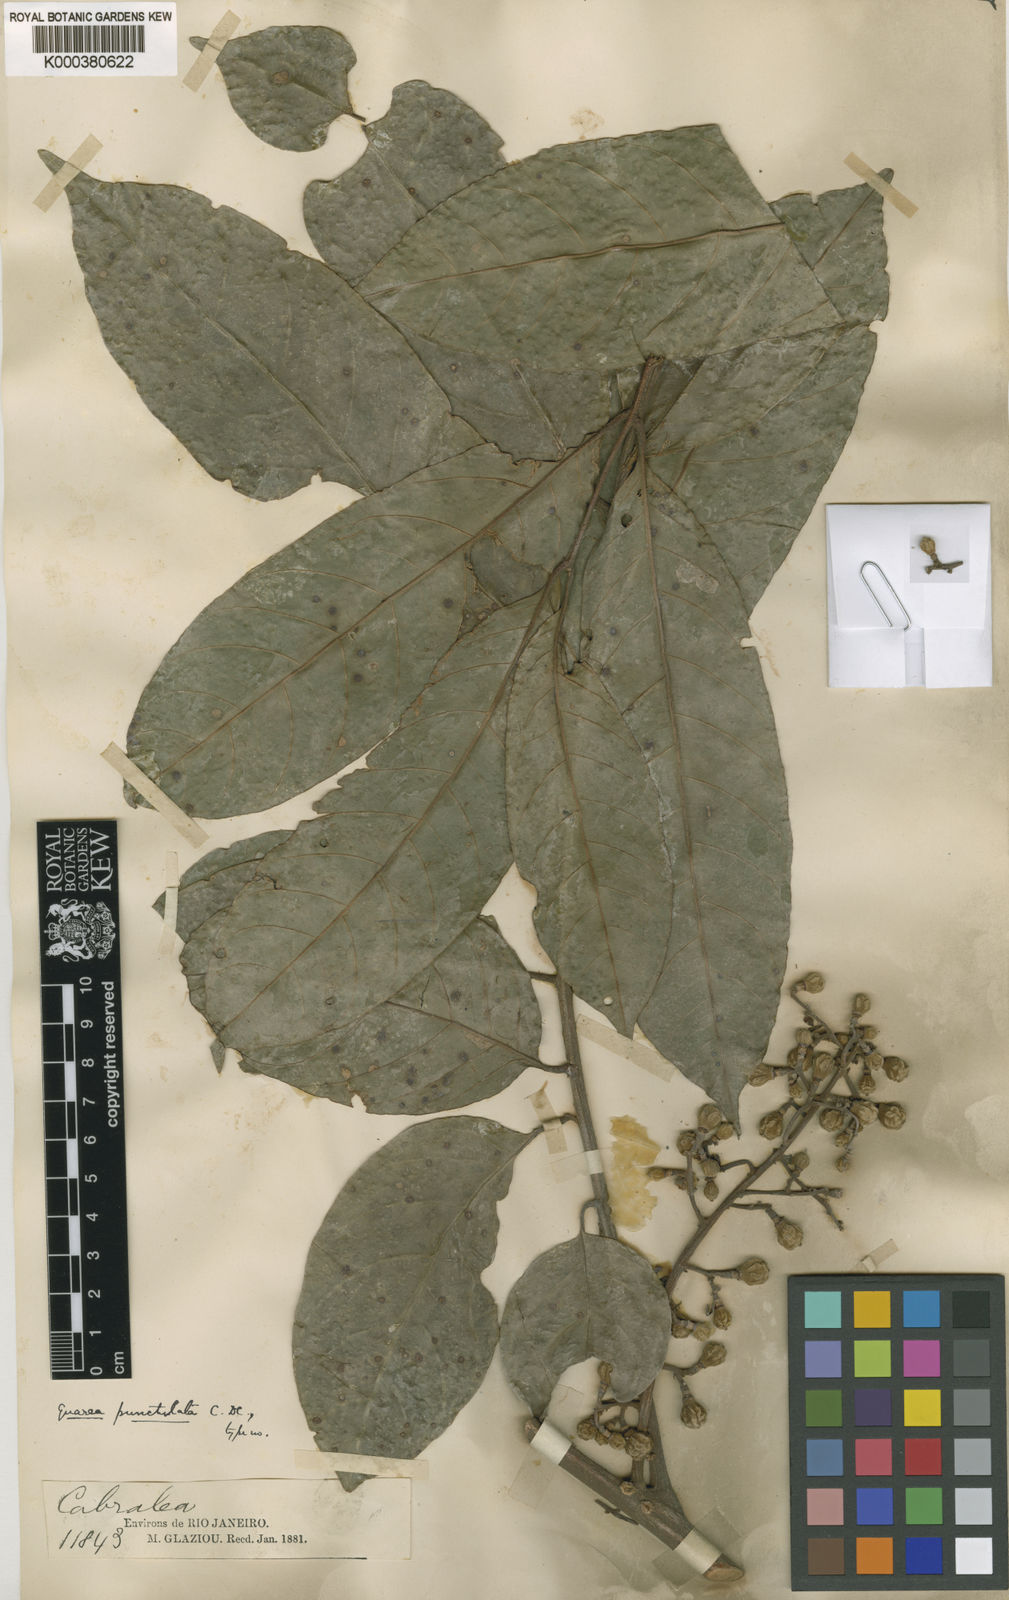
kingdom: Plantae
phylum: Tracheophyta
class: Magnoliopsida
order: Sapindales
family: Meliaceae
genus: Guarea
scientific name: Guarea macrophylla
